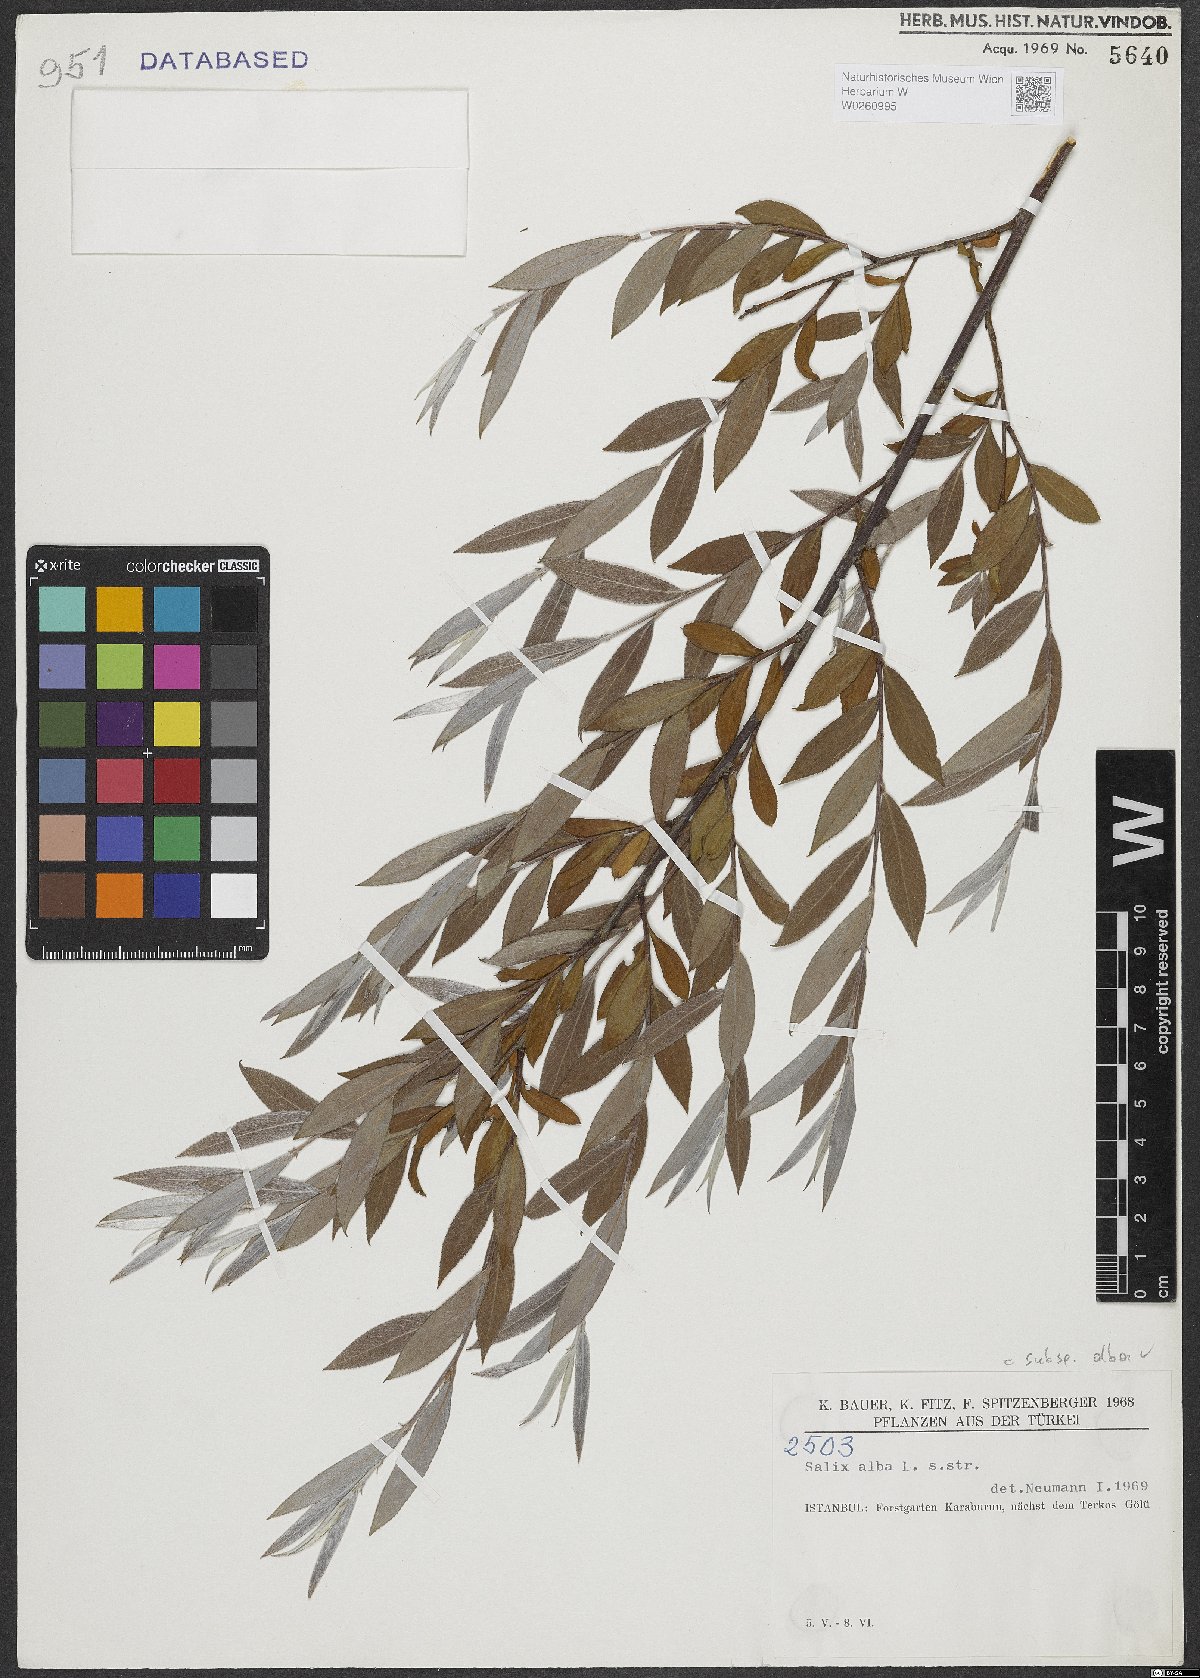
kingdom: Plantae
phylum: Tracheophyta
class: Magnoliopsida
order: Malpighiales
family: Salicaceae
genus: Salix
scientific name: Salix alba
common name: White willow
